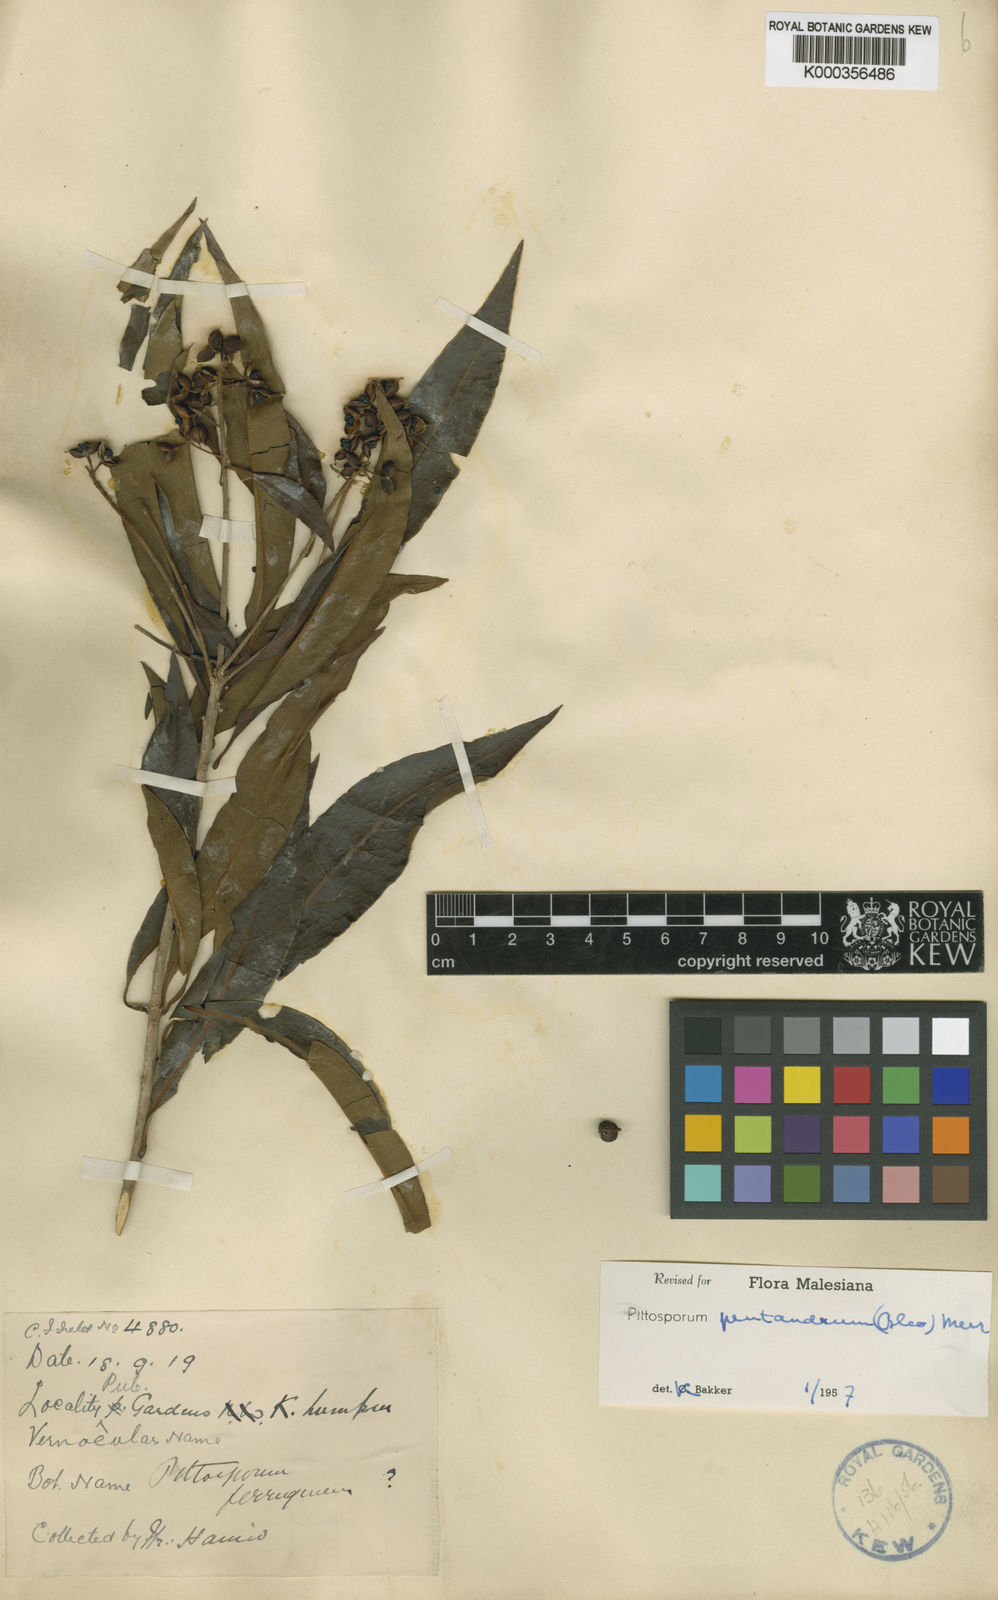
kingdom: Plantae
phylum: Tracheophyta
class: Magnoliopsida
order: Apiales
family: Pittosporaceae
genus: Pittosporum
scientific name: Pittosporum pentandrum
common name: Taiwanese cheesewood
